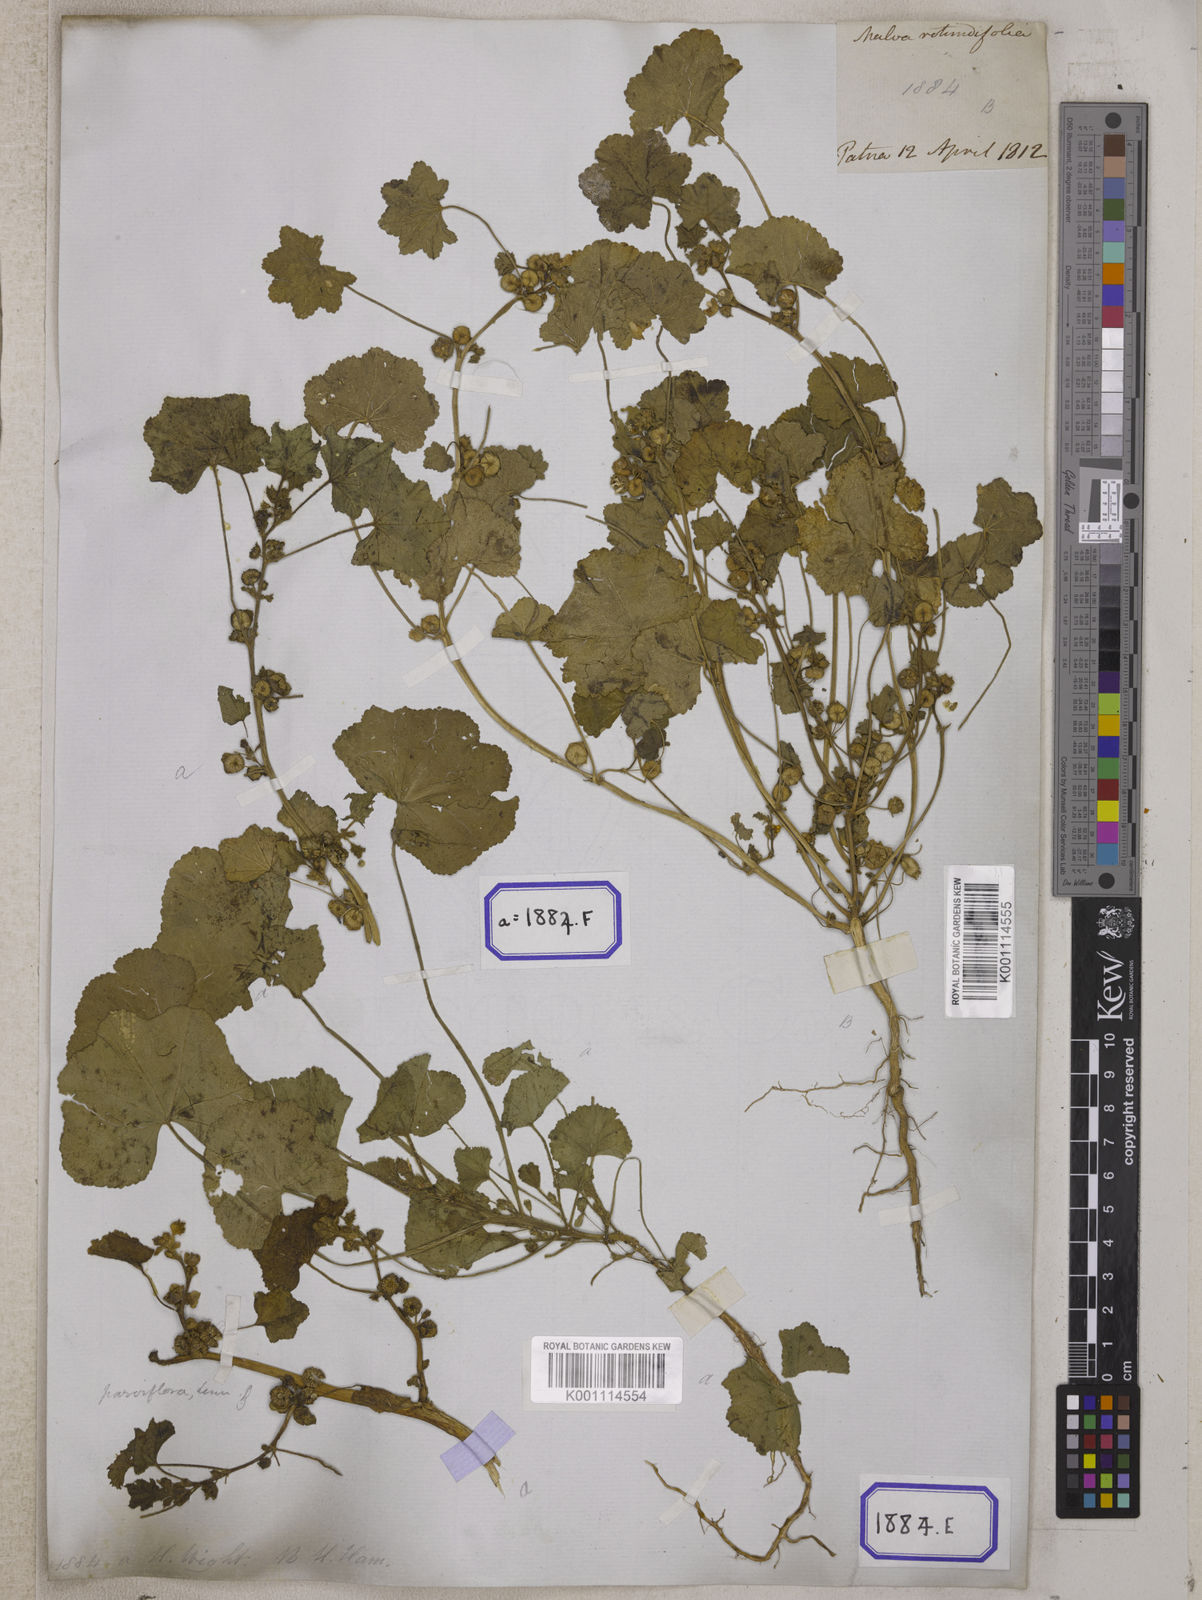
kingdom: Plantae
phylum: Tracheophyta
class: Magnoliopsida
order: Malvales
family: Malvaceae
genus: Malva
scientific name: Malva pusilla
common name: Small mallow
